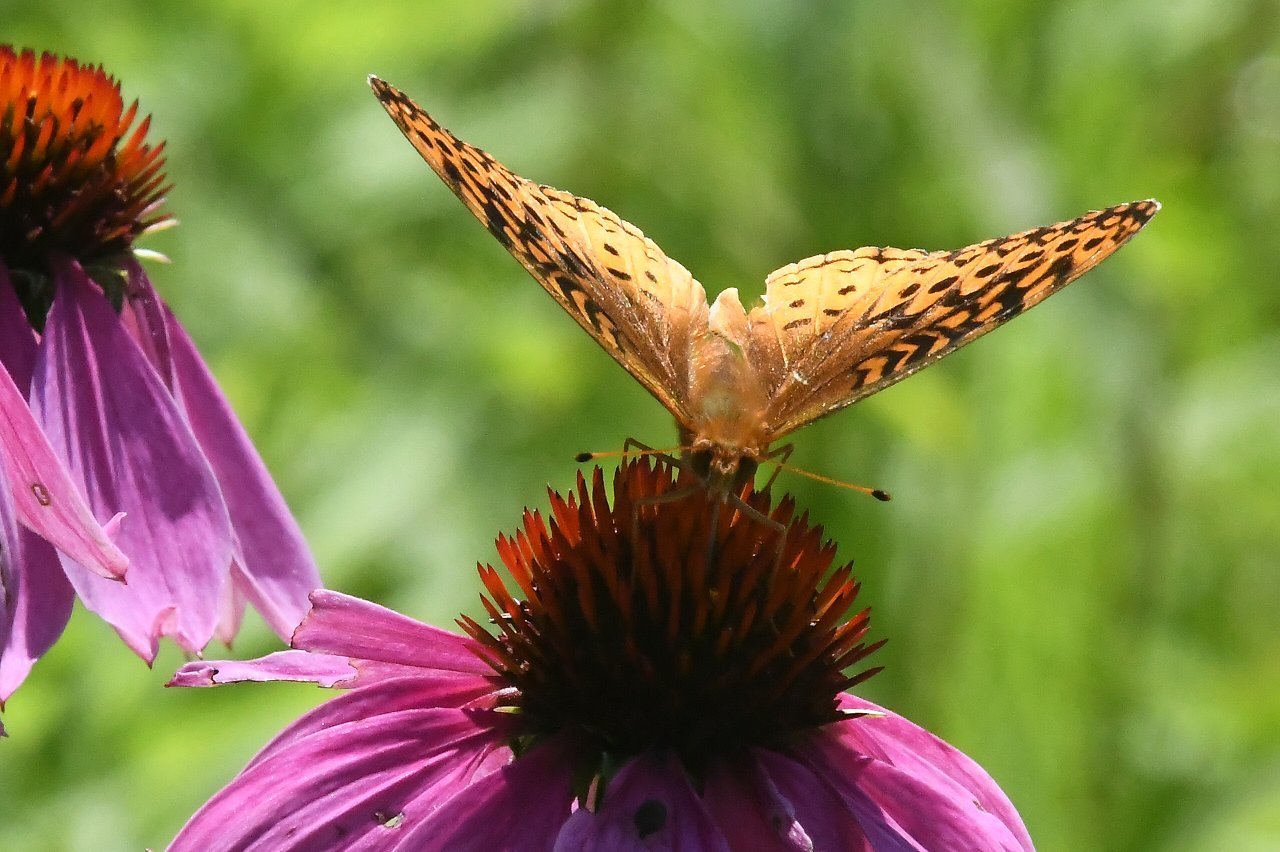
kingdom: Animalia
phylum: Arthropoda
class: Insecta
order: Lepidoptera
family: Nymphalidae
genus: Speyeria
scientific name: Speyeria cybele
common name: Great Spangled Fritillary
